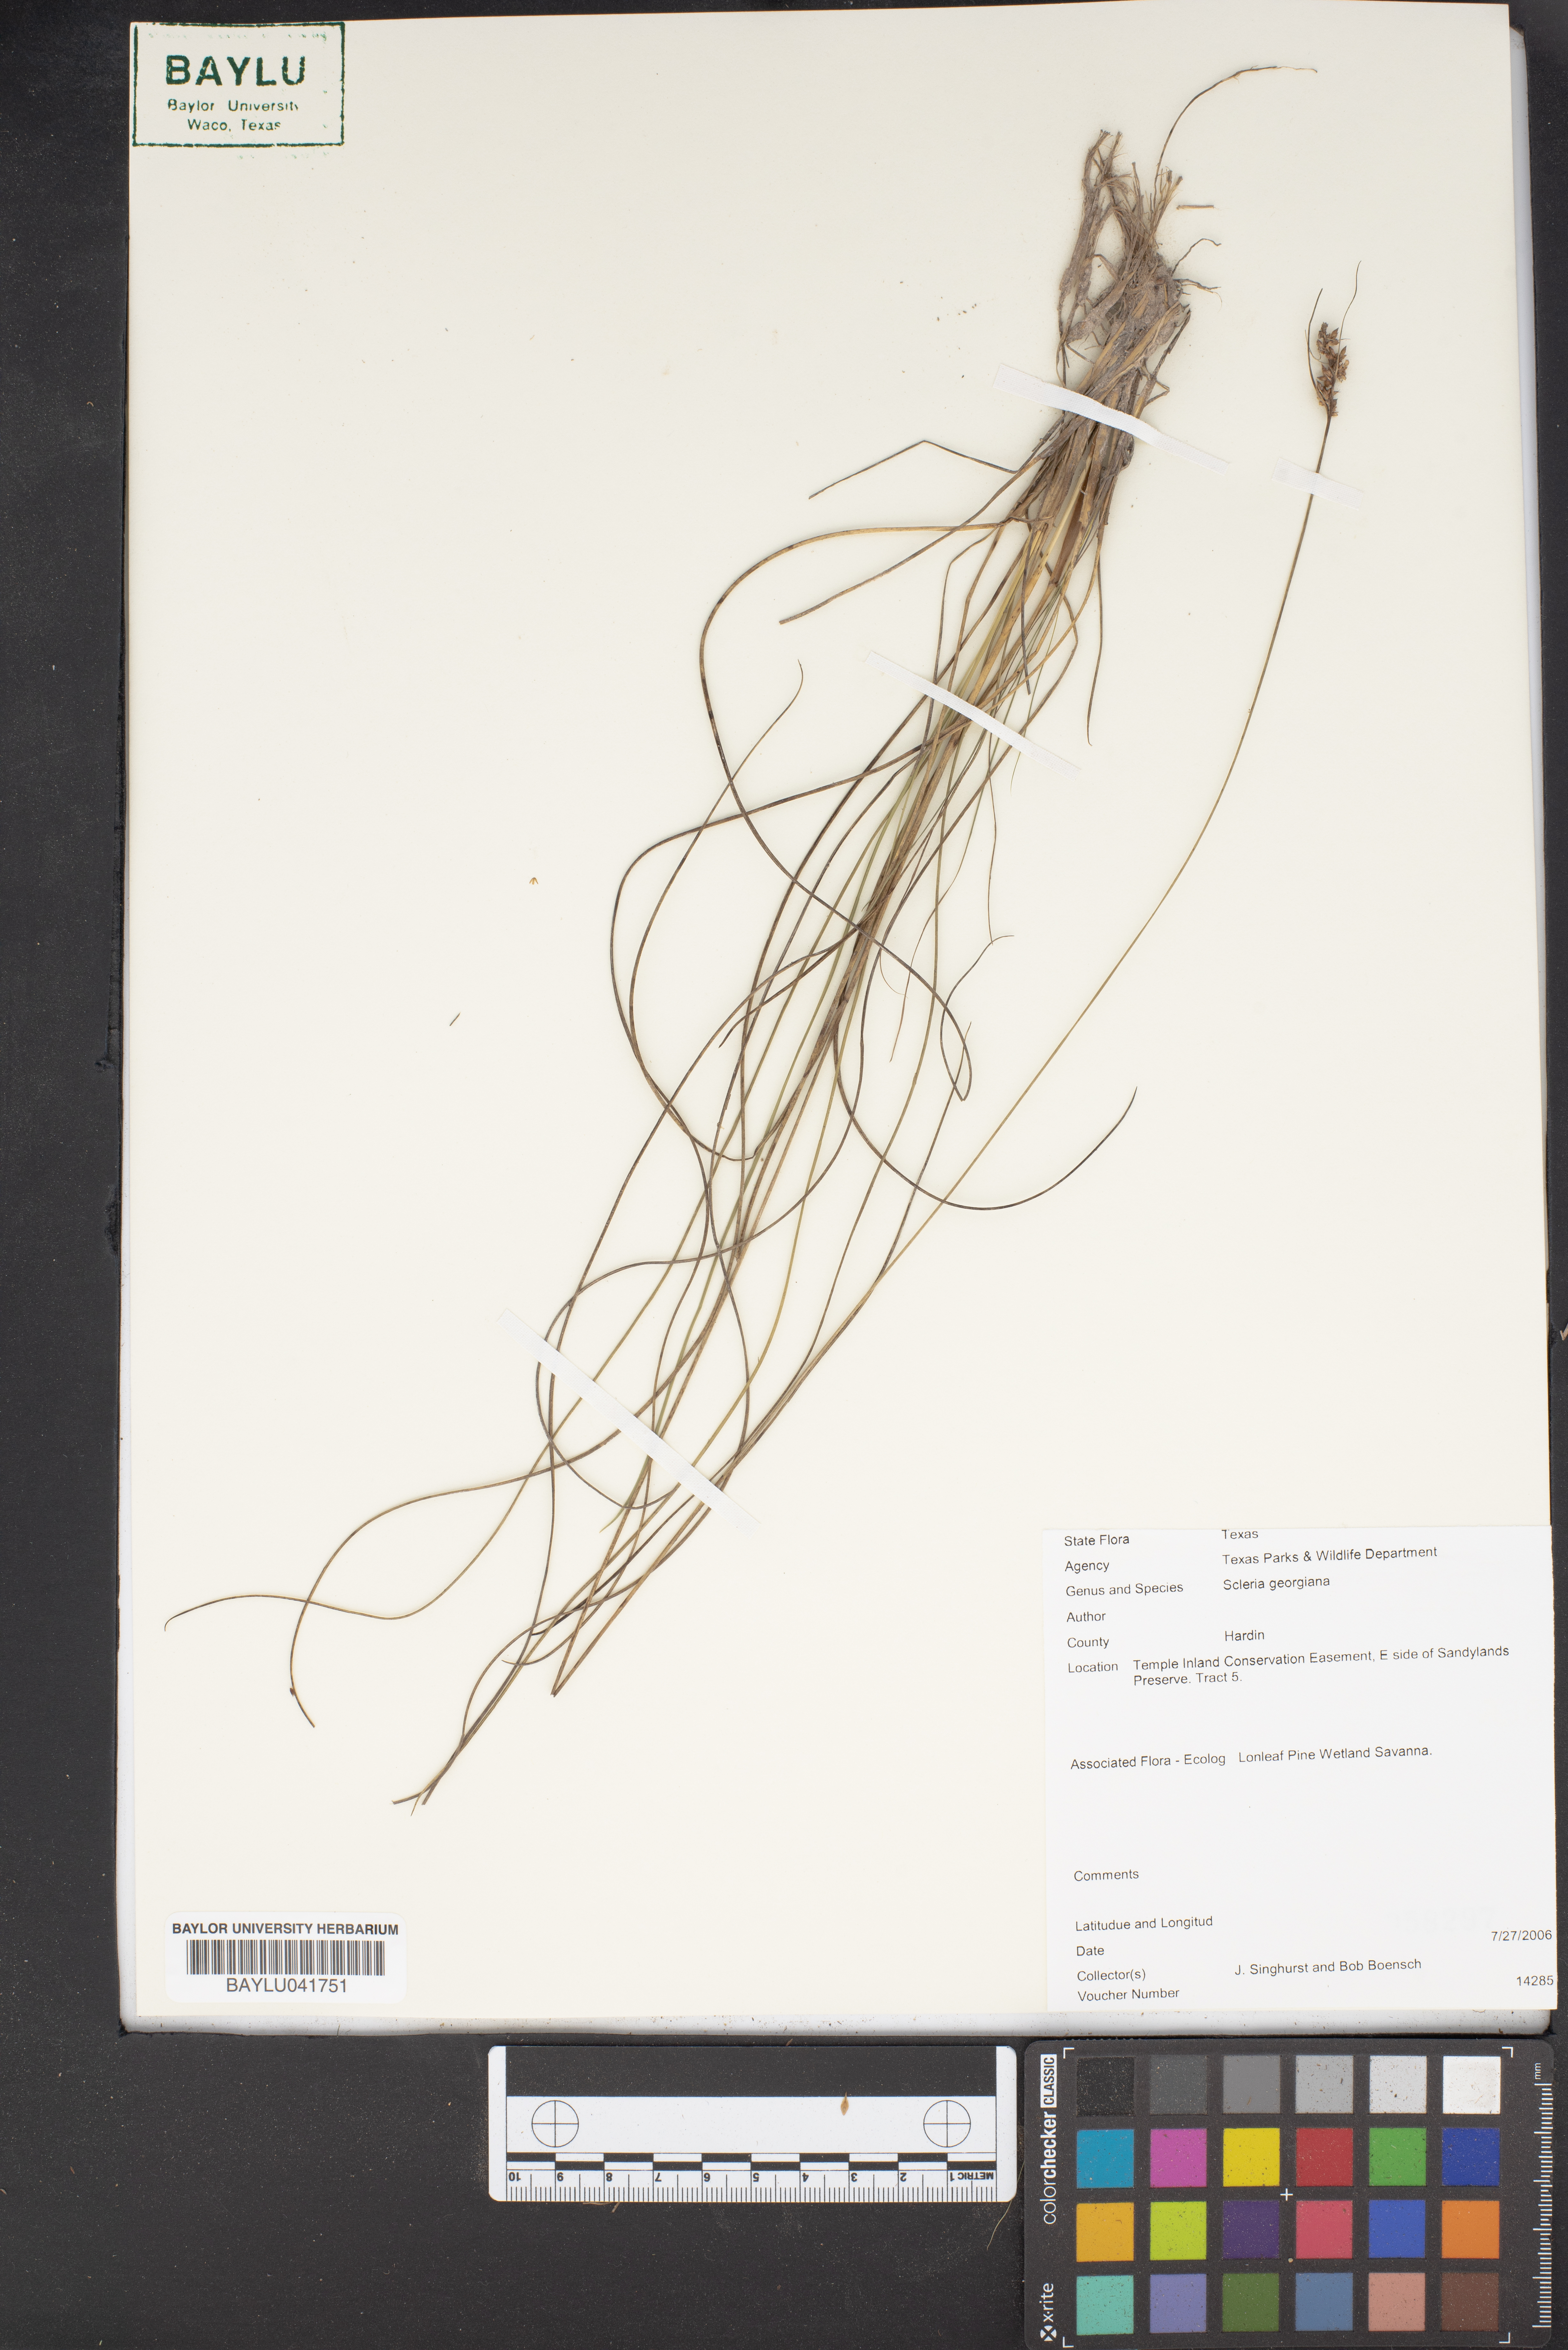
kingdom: Plantae
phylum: Tracheophyta
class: Liliopsida
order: Poales
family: Cyperaceae
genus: Scleria
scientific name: Scleria georgiana
